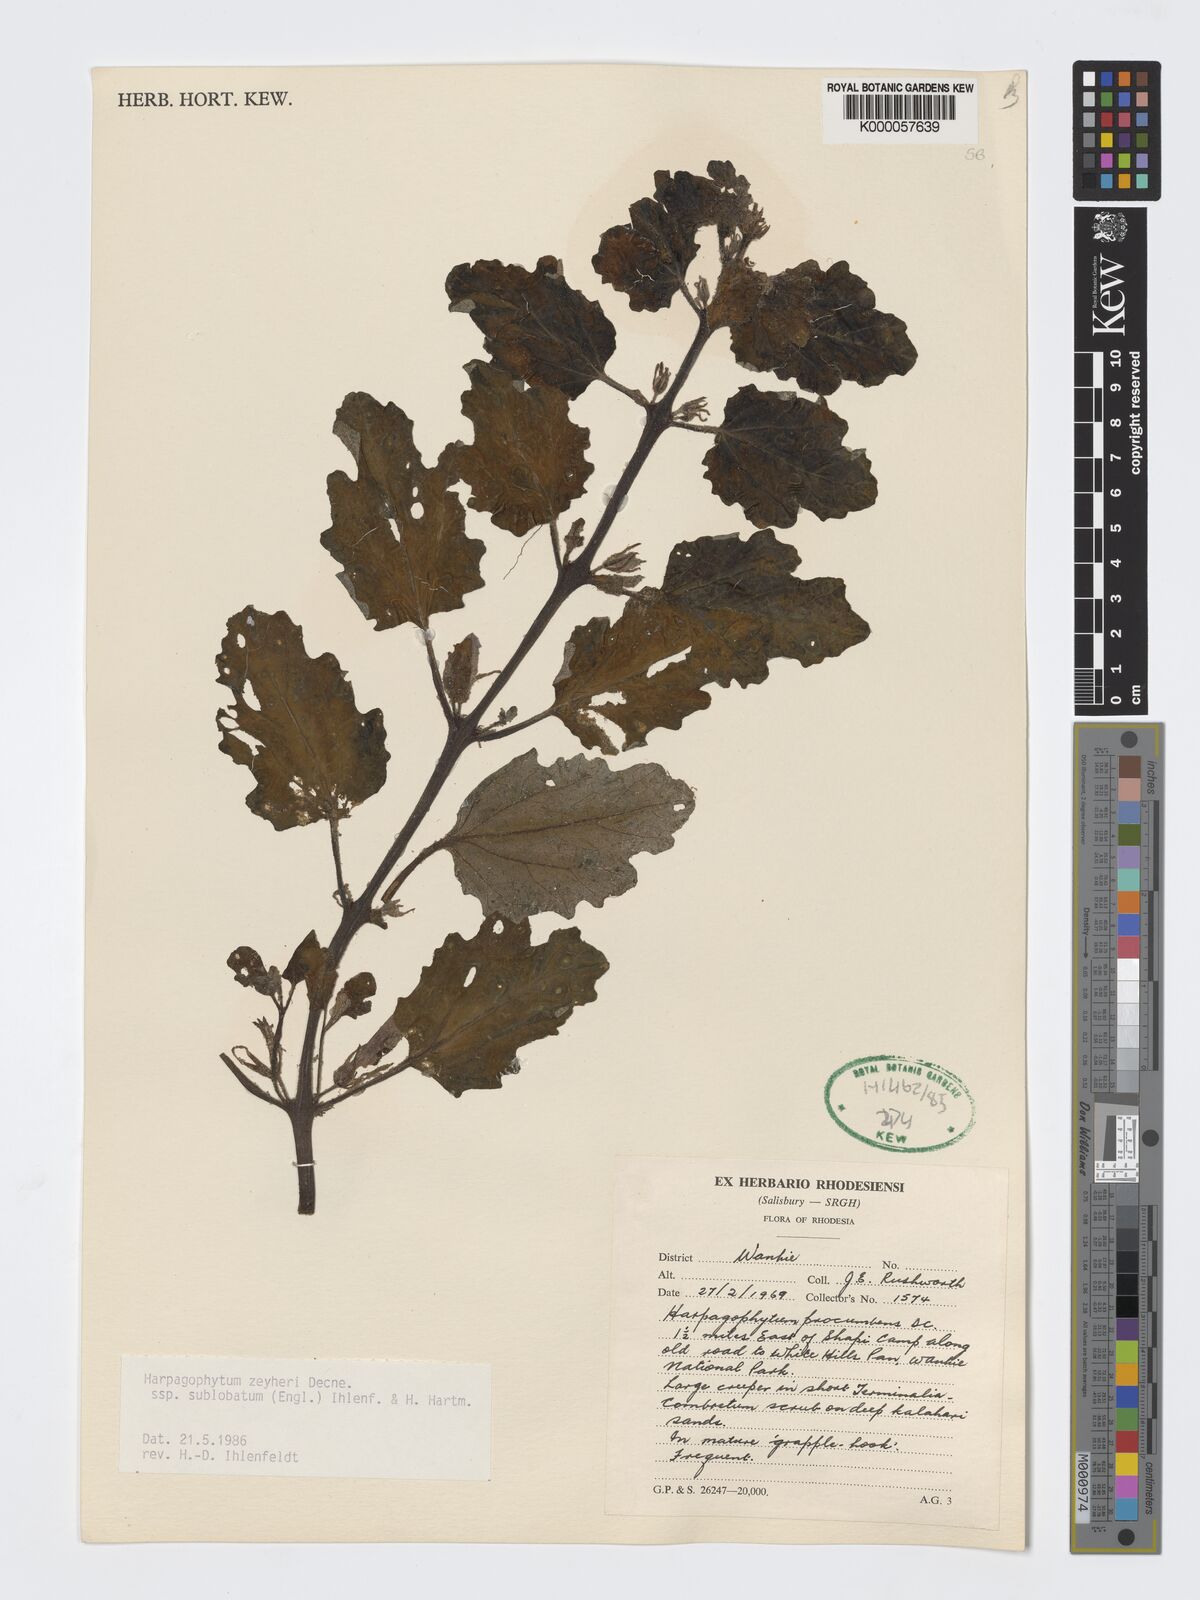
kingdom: Plantae
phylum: Tracheophyta
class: Magnoliopsida
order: Lamiales
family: Pedaliaceae
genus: Harpagophytum
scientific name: Harpagophytum zeyheri
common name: Grappleplant
